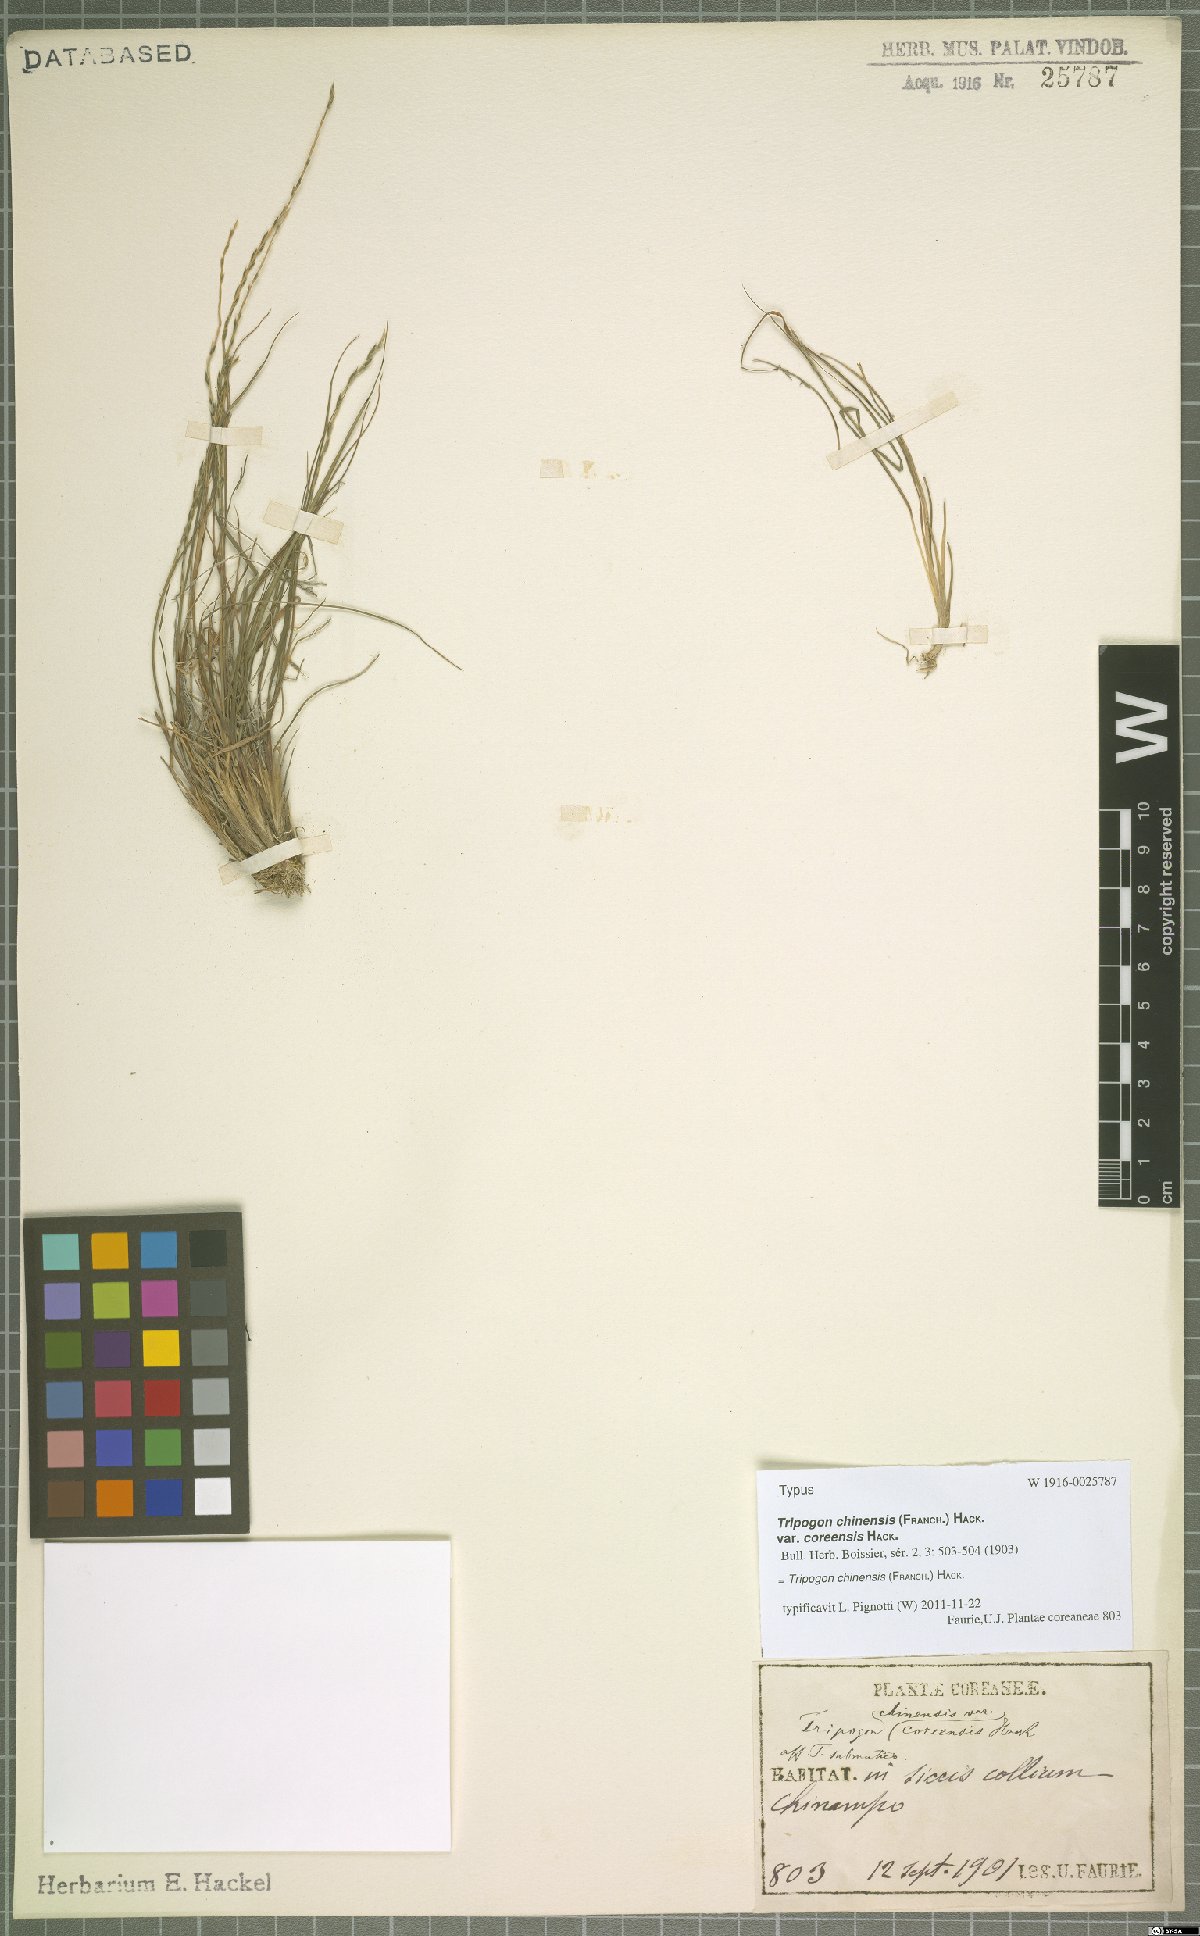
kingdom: Plantae
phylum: Tracheophyta
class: Liliopsida
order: Poales
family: Poaceae
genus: Tripogon
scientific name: Tripogon chinensis
